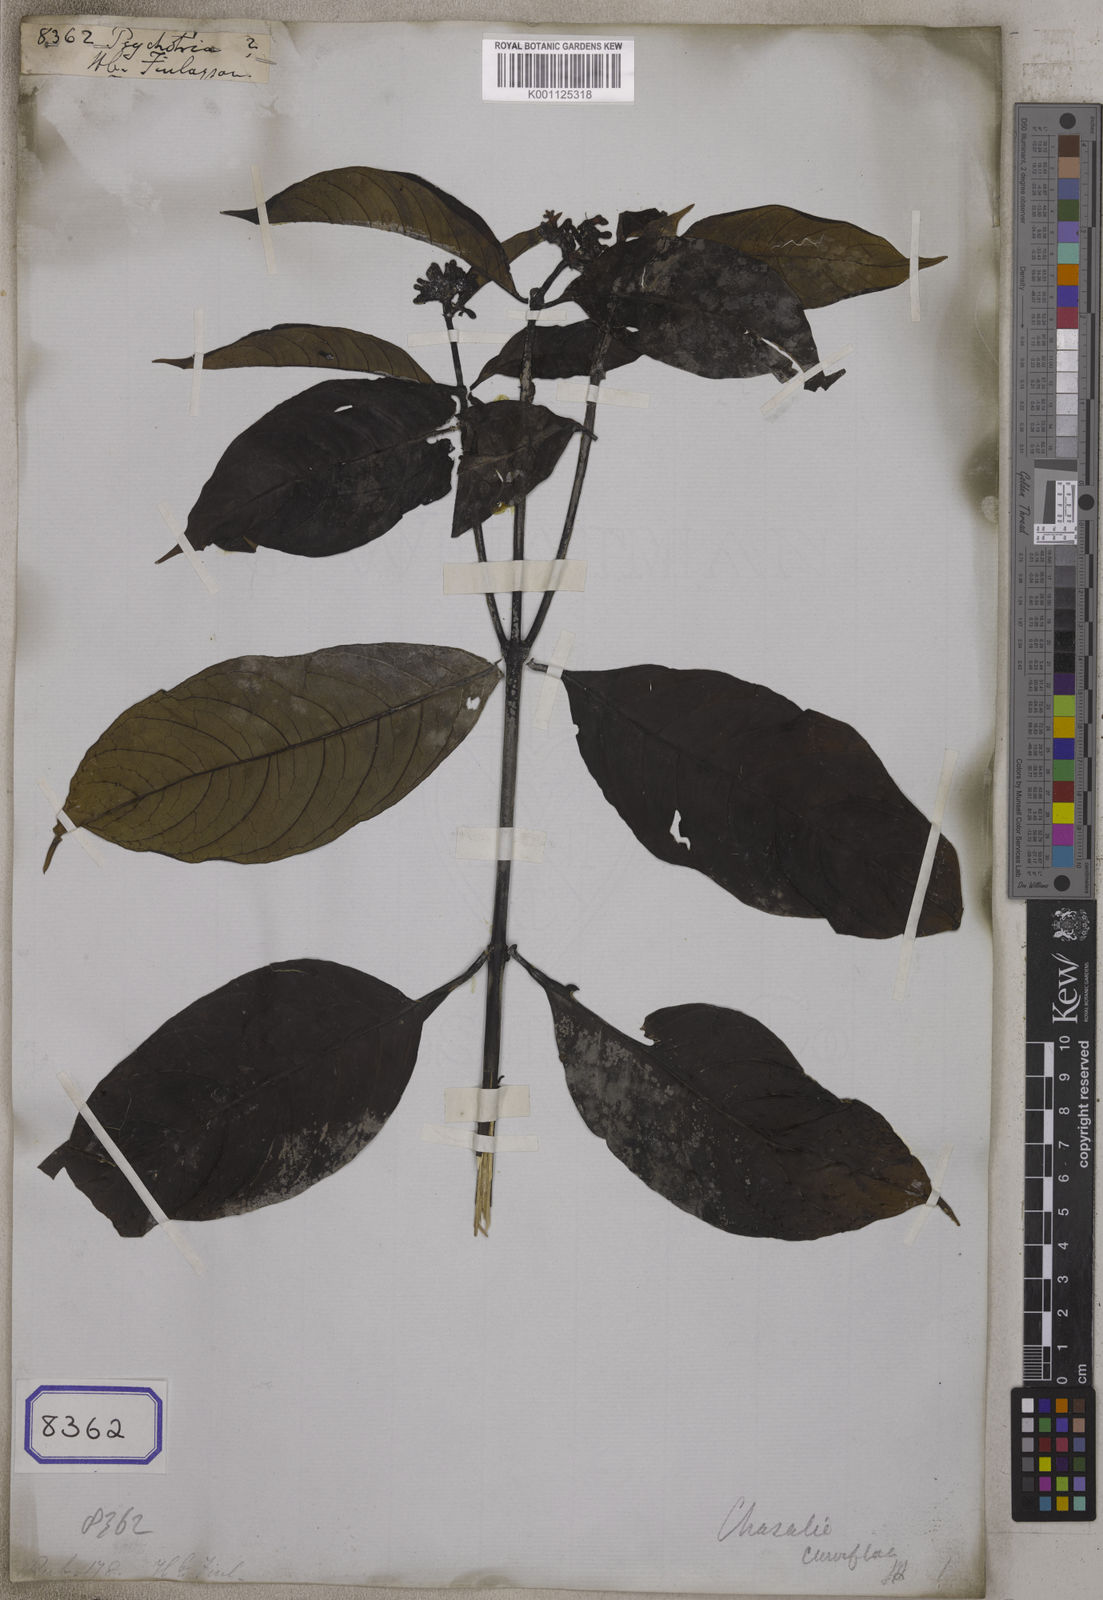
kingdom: Plantae
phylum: Tracheophyta
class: Magnoliopsida
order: Gentianales
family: Rubiaceae
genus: Psychotria
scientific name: Psychotria
